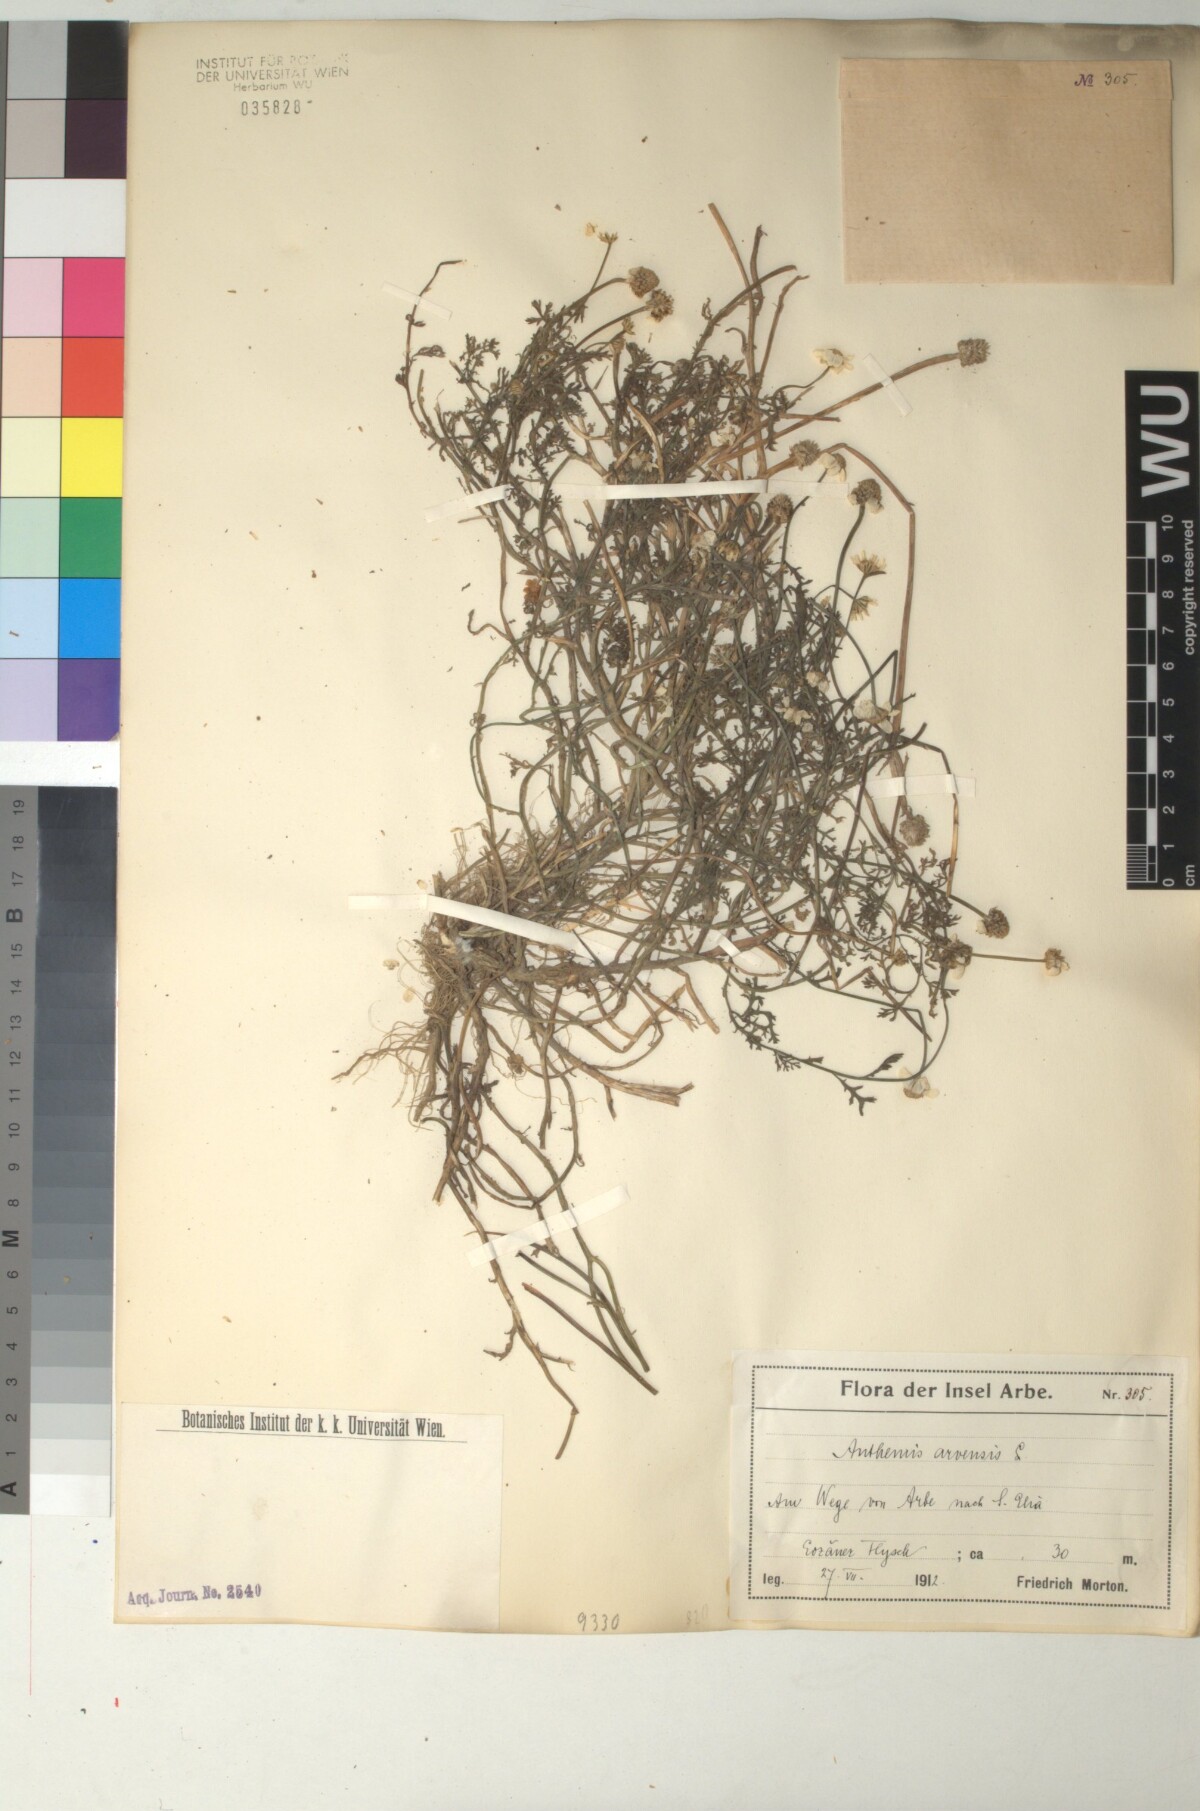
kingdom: Plantae
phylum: Tracheophyta
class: Magnoliopsida
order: Asterales
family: Asteraceae
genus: Anthemis
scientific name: Anthemis arvensis
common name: Corn chamomile
